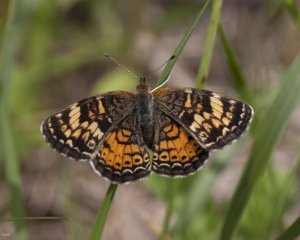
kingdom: Animalia
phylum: Arthropoda
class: Insecta
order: Lepidoptera
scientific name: Lepidoptera
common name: Butterflies
